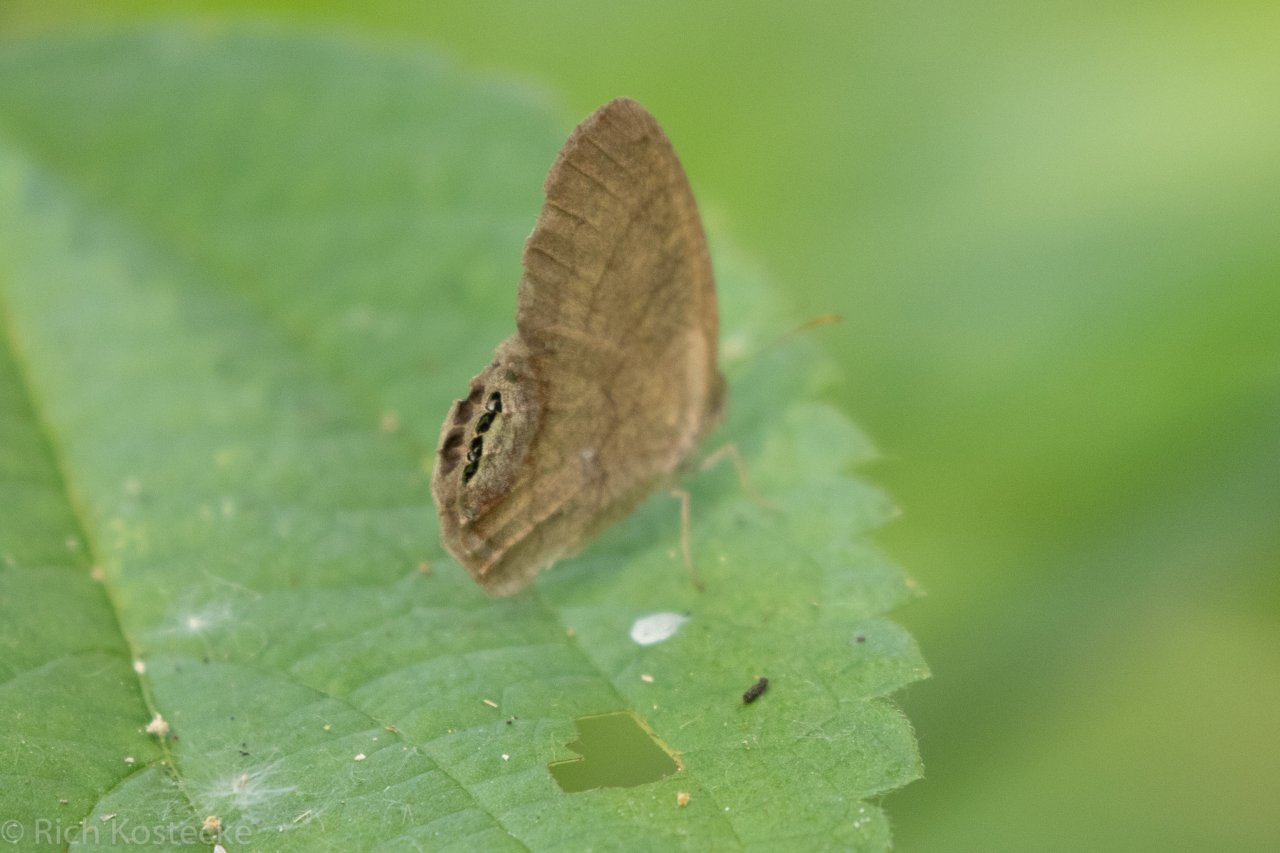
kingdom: Animalia
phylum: Arthropoda
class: Insecta
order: Lepidoptera
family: Nymphalidae
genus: Euptychia
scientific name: Euptychia cornelius
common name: Gemmed Satyr
